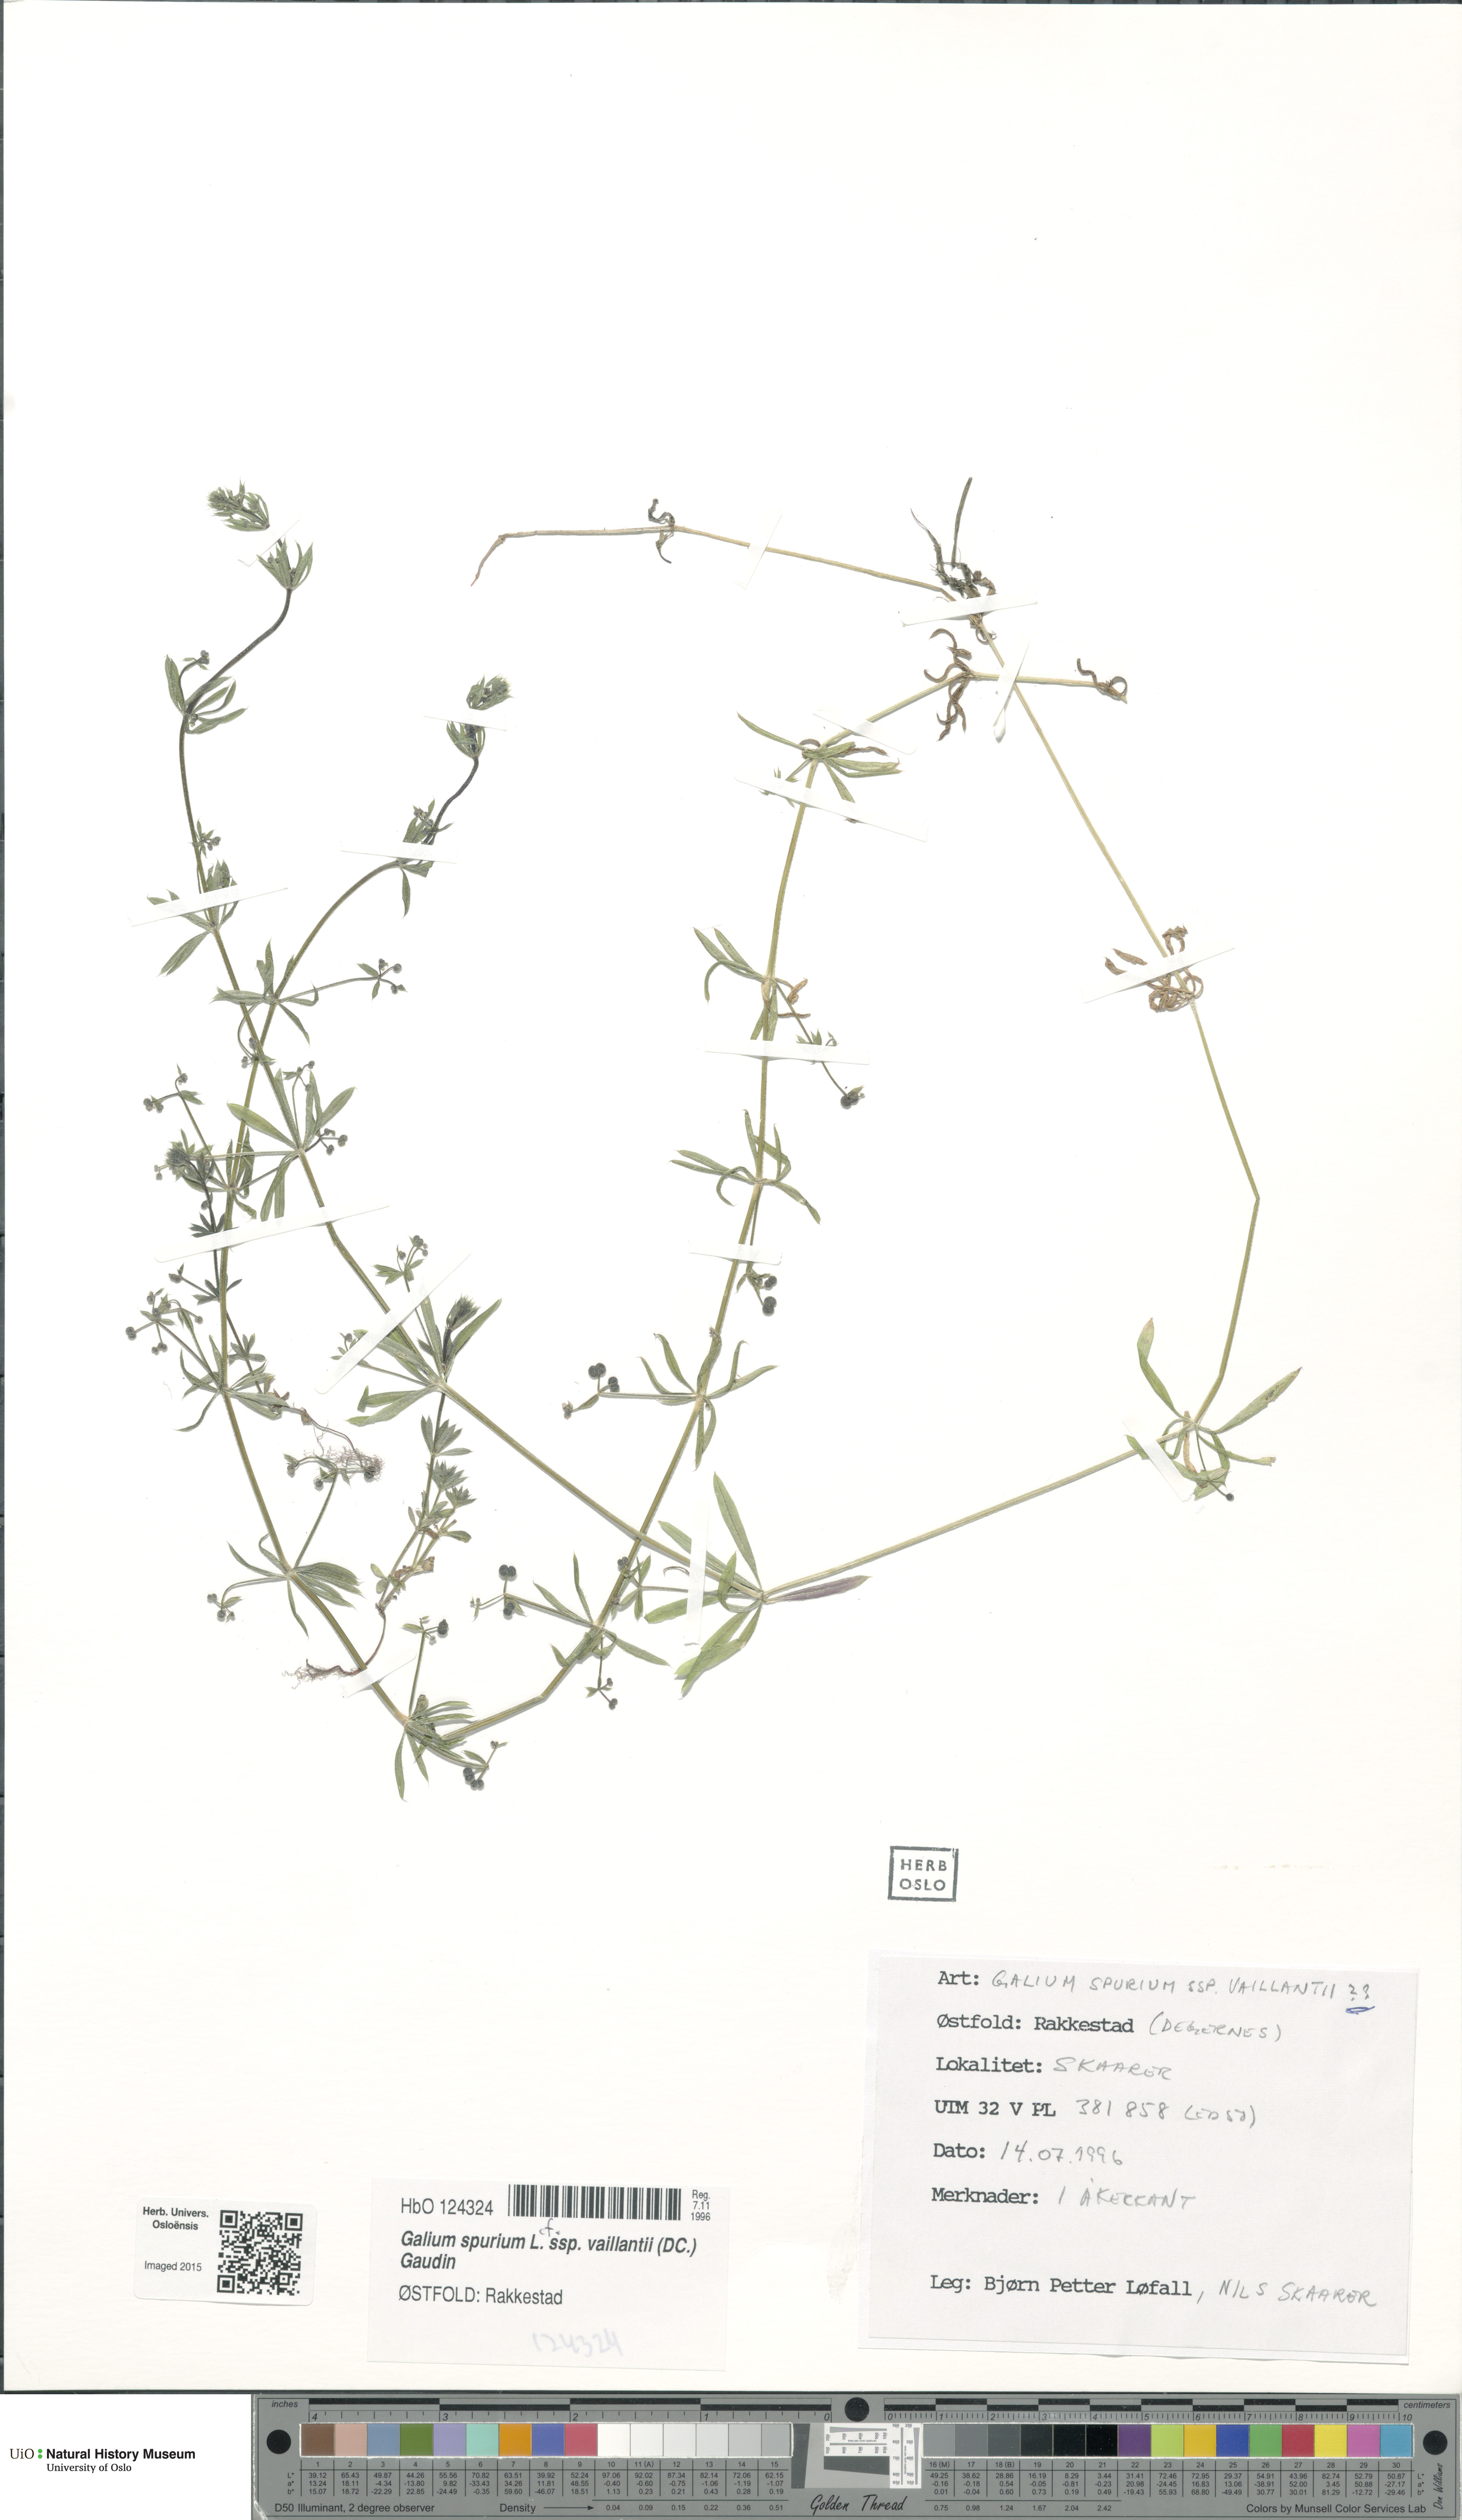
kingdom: Plantae
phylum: Tracheophyta
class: Magnoliopsida
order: Gentianales
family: Rubiaceae
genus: Galium
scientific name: Galium spurium
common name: False cleavers
